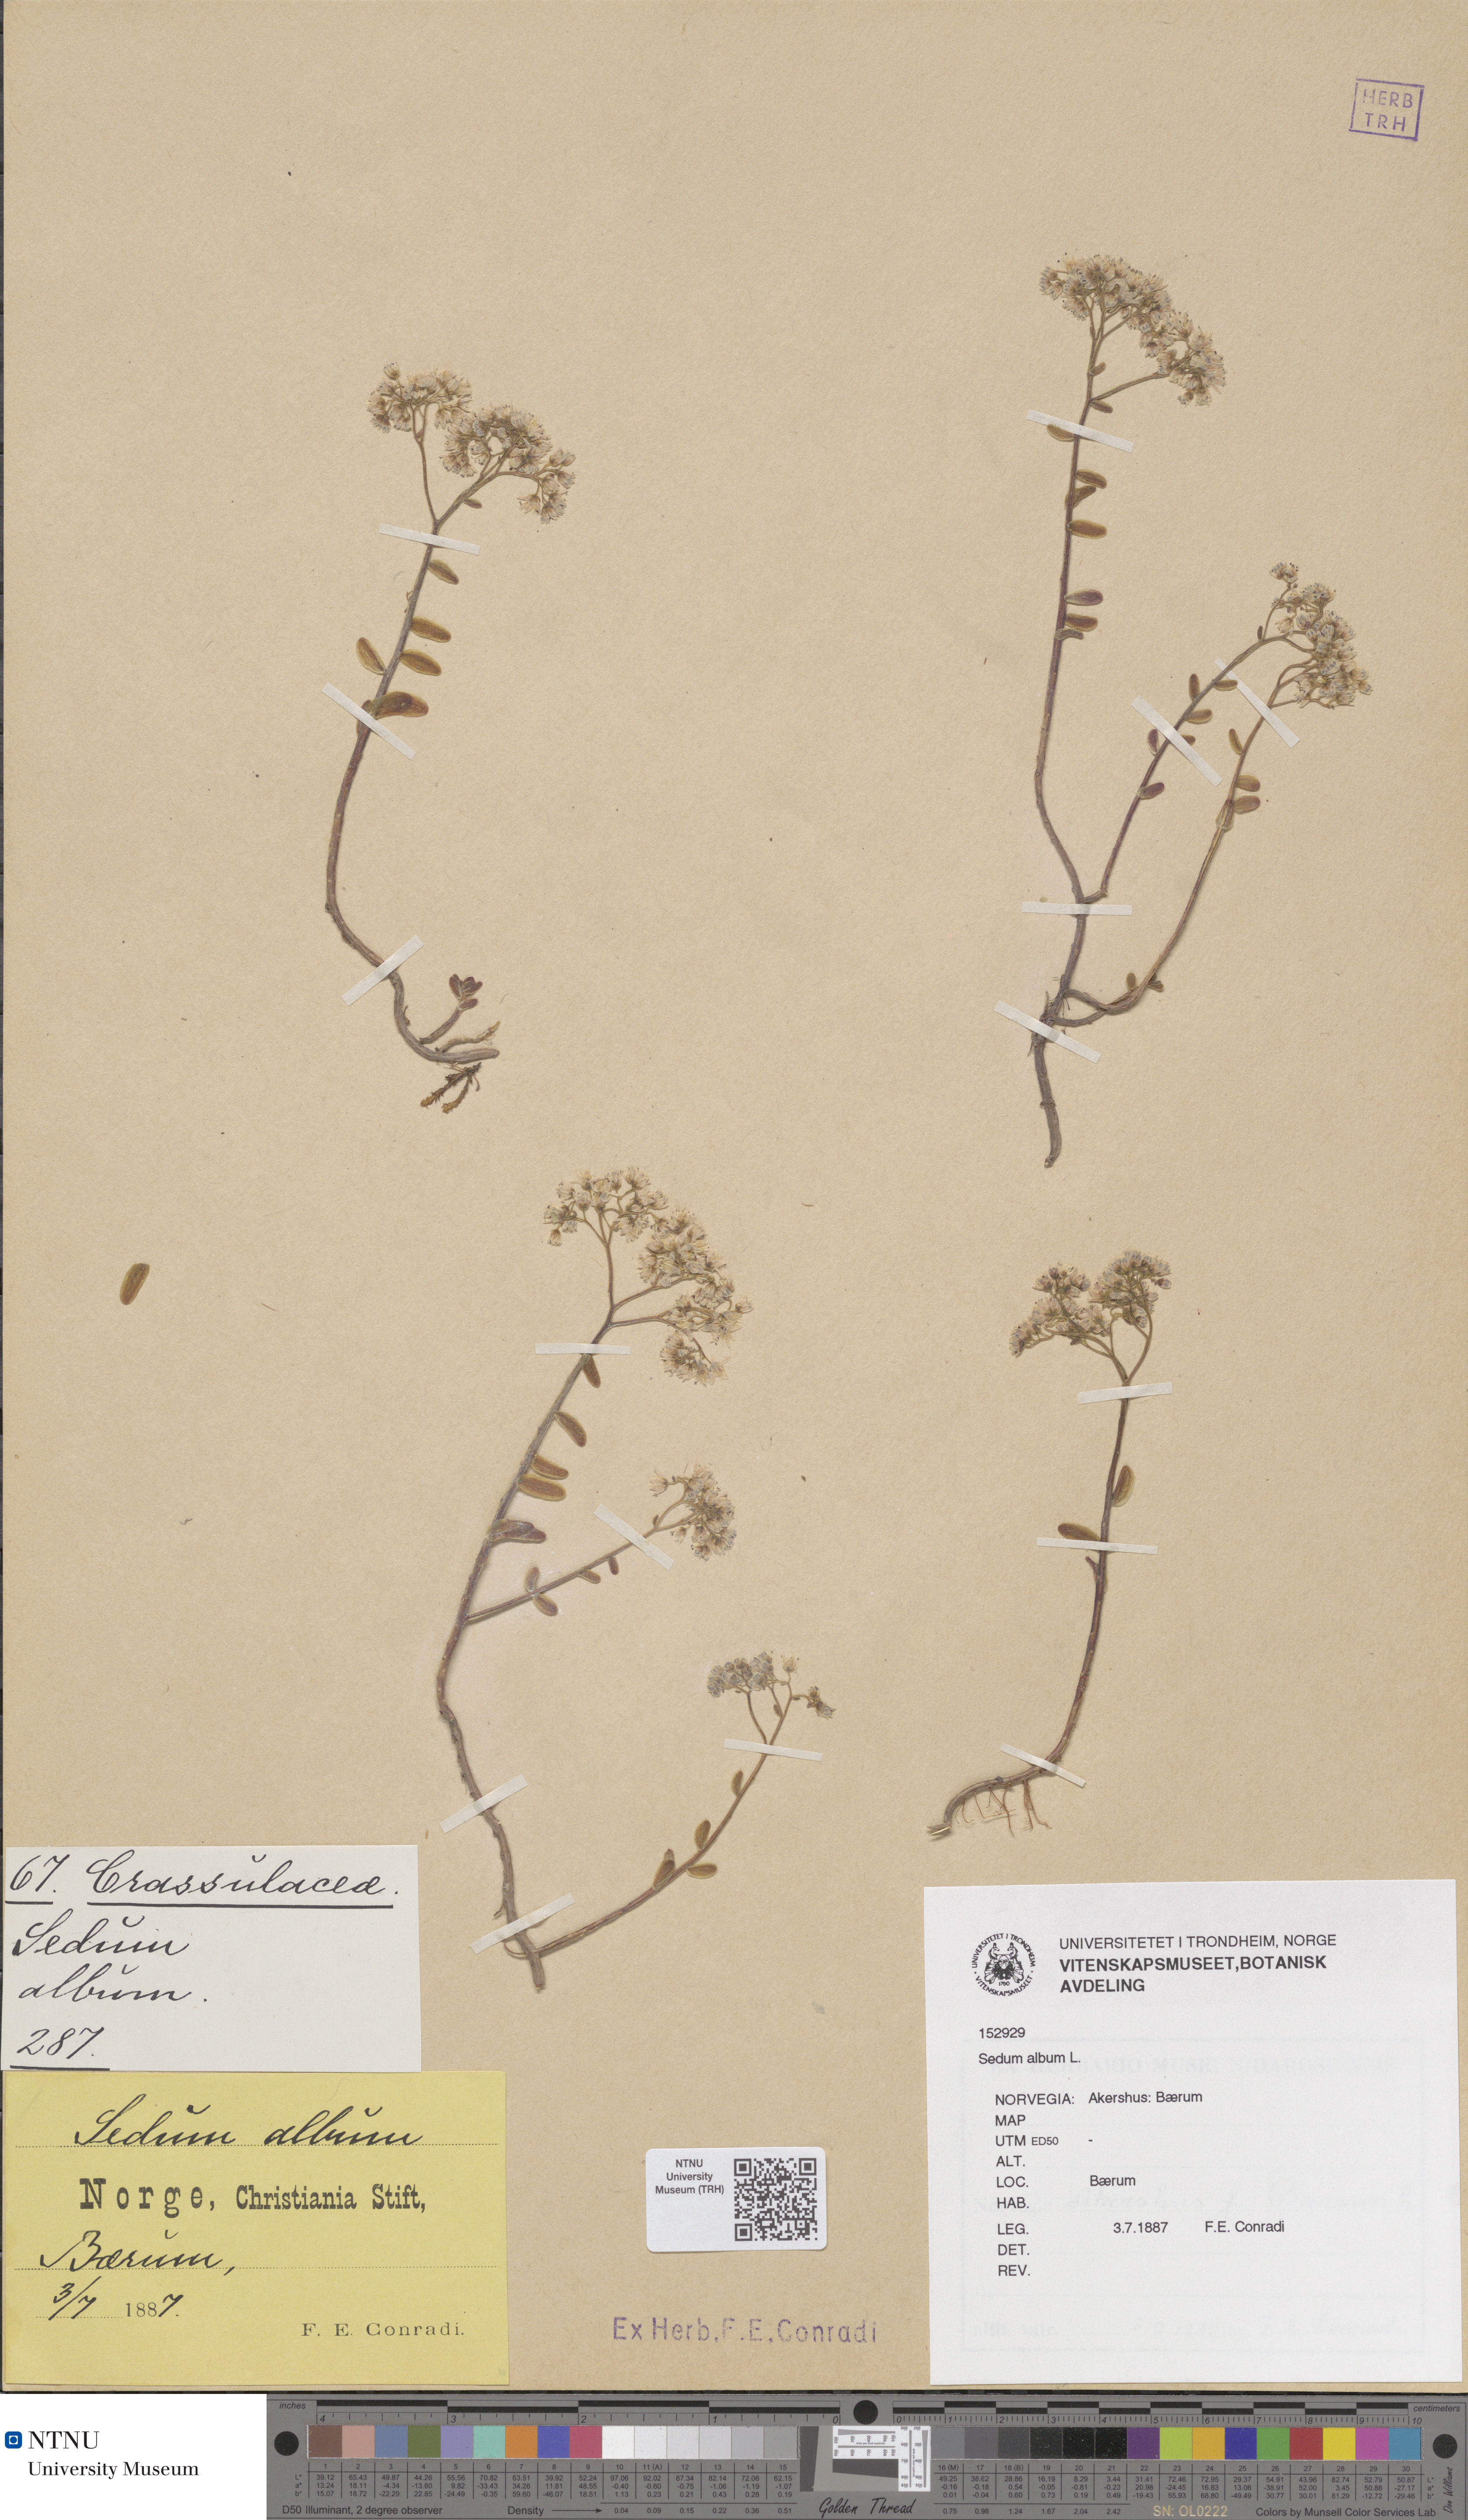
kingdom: Plantae
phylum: Tracheophyta
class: Magnoliopsida
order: Saxifragales
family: Crassulaceae
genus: Sedum
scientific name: Sedum album
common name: White stonecrop
